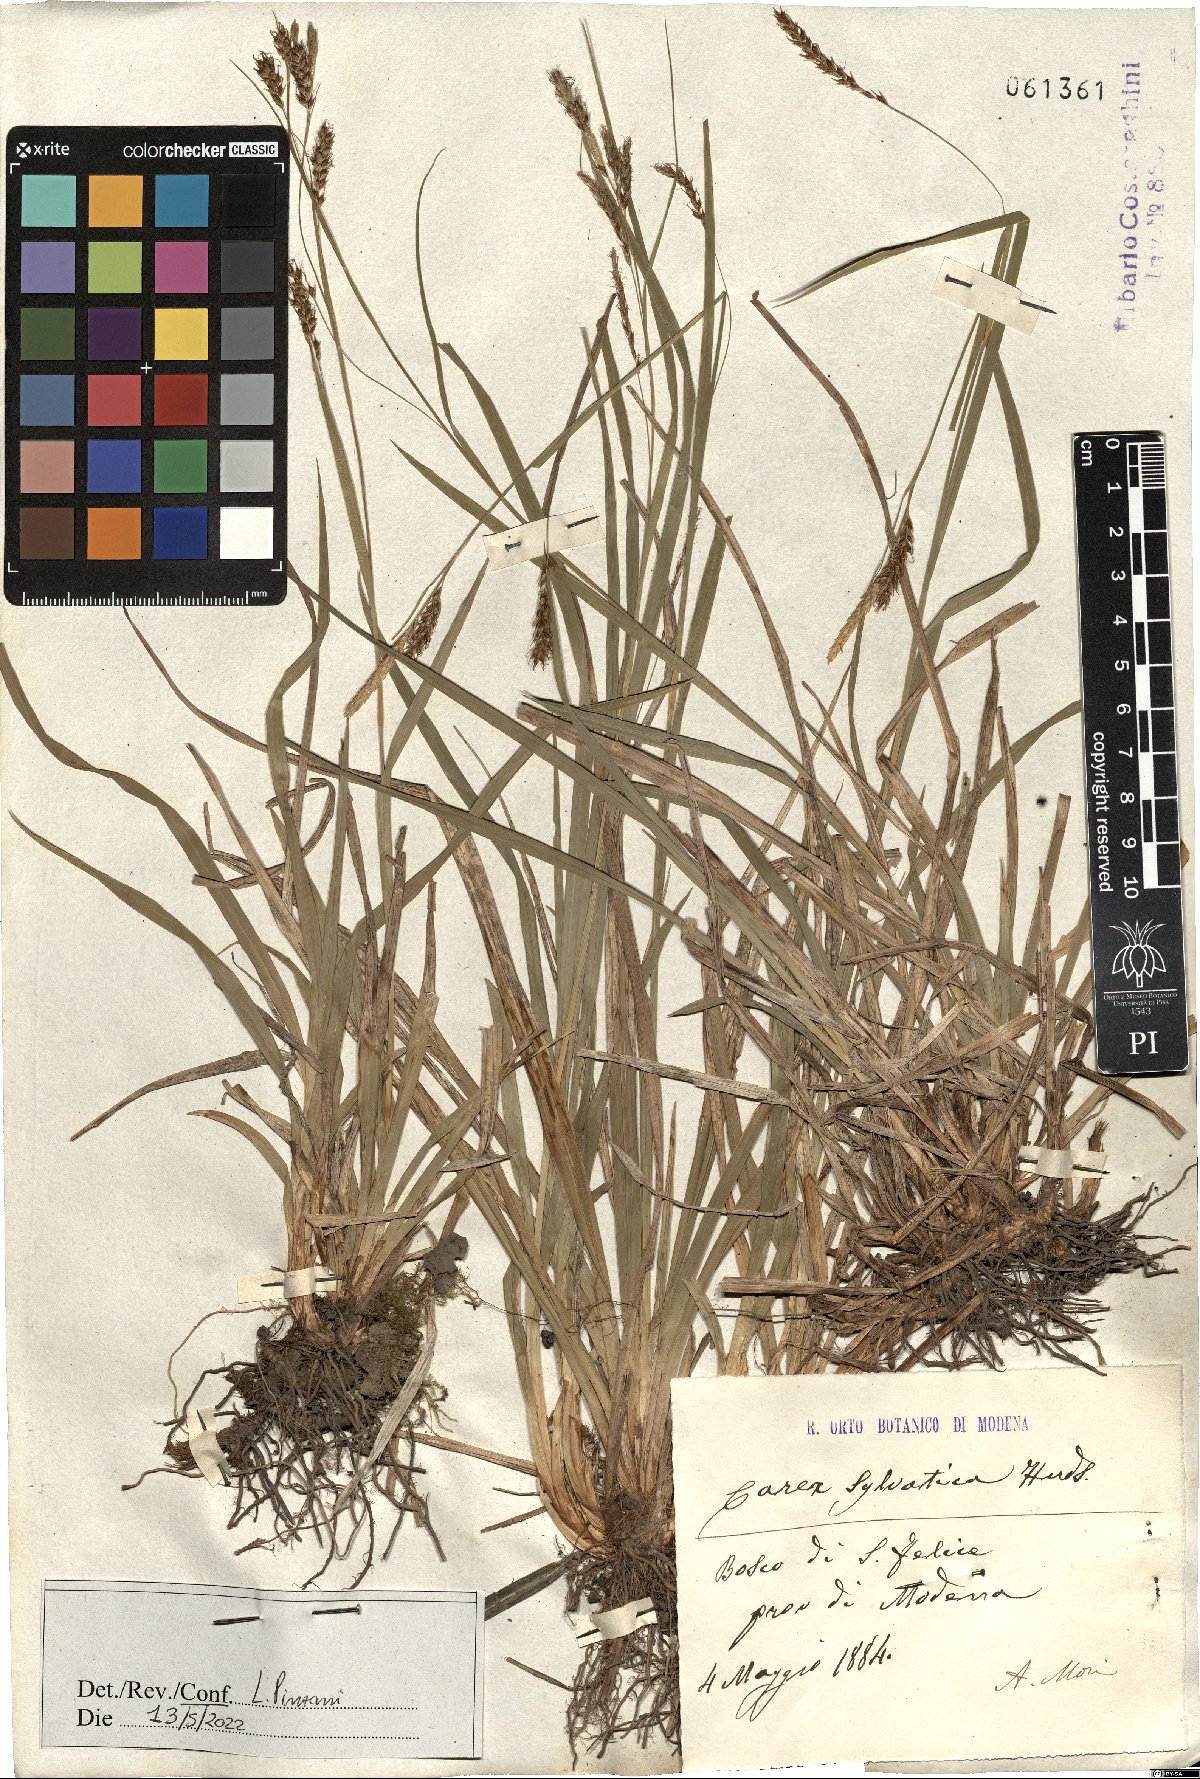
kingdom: Plantae
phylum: Tracheophyta
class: Liliopsida
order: Poales
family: Cyperaceae
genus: Carex
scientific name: Carex sylvatica
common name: Wood-sedge
